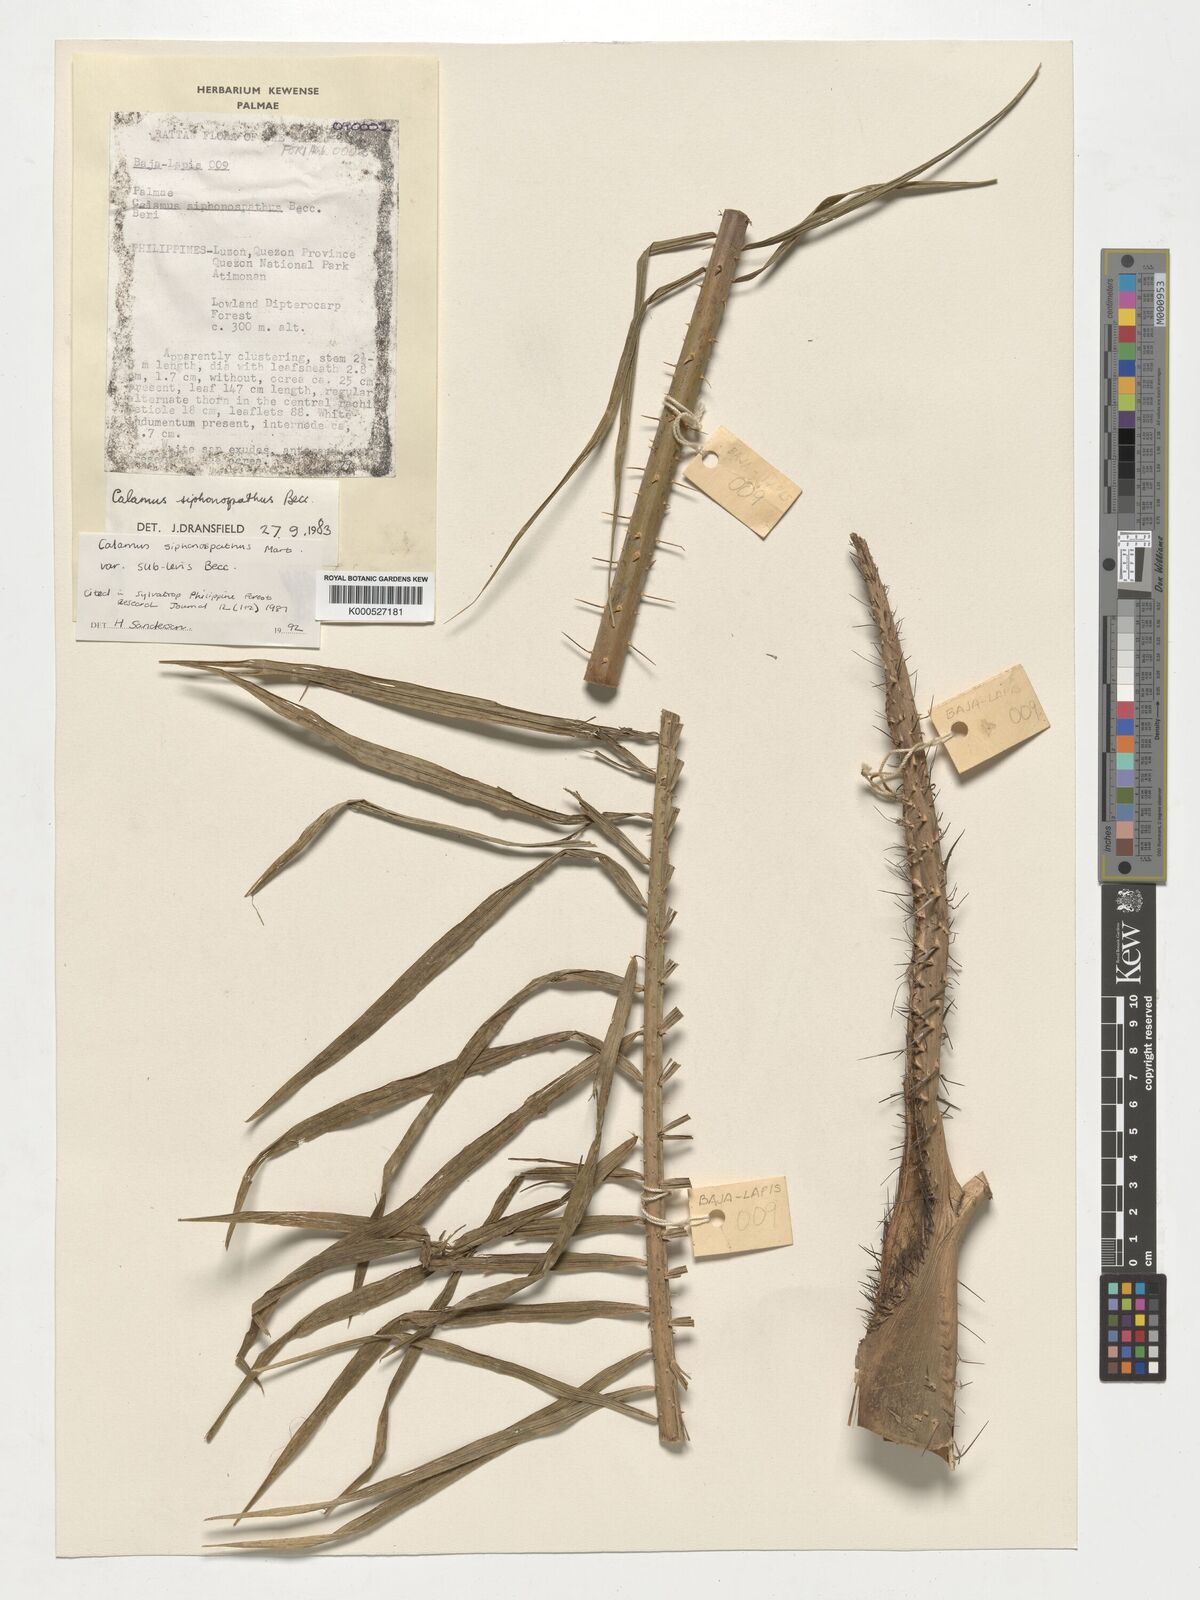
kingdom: Plantae
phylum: Tracheophyta
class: Liliopsida
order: Arecales
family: Arecaceae
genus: Calamus
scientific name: Calamus siphonospathus
